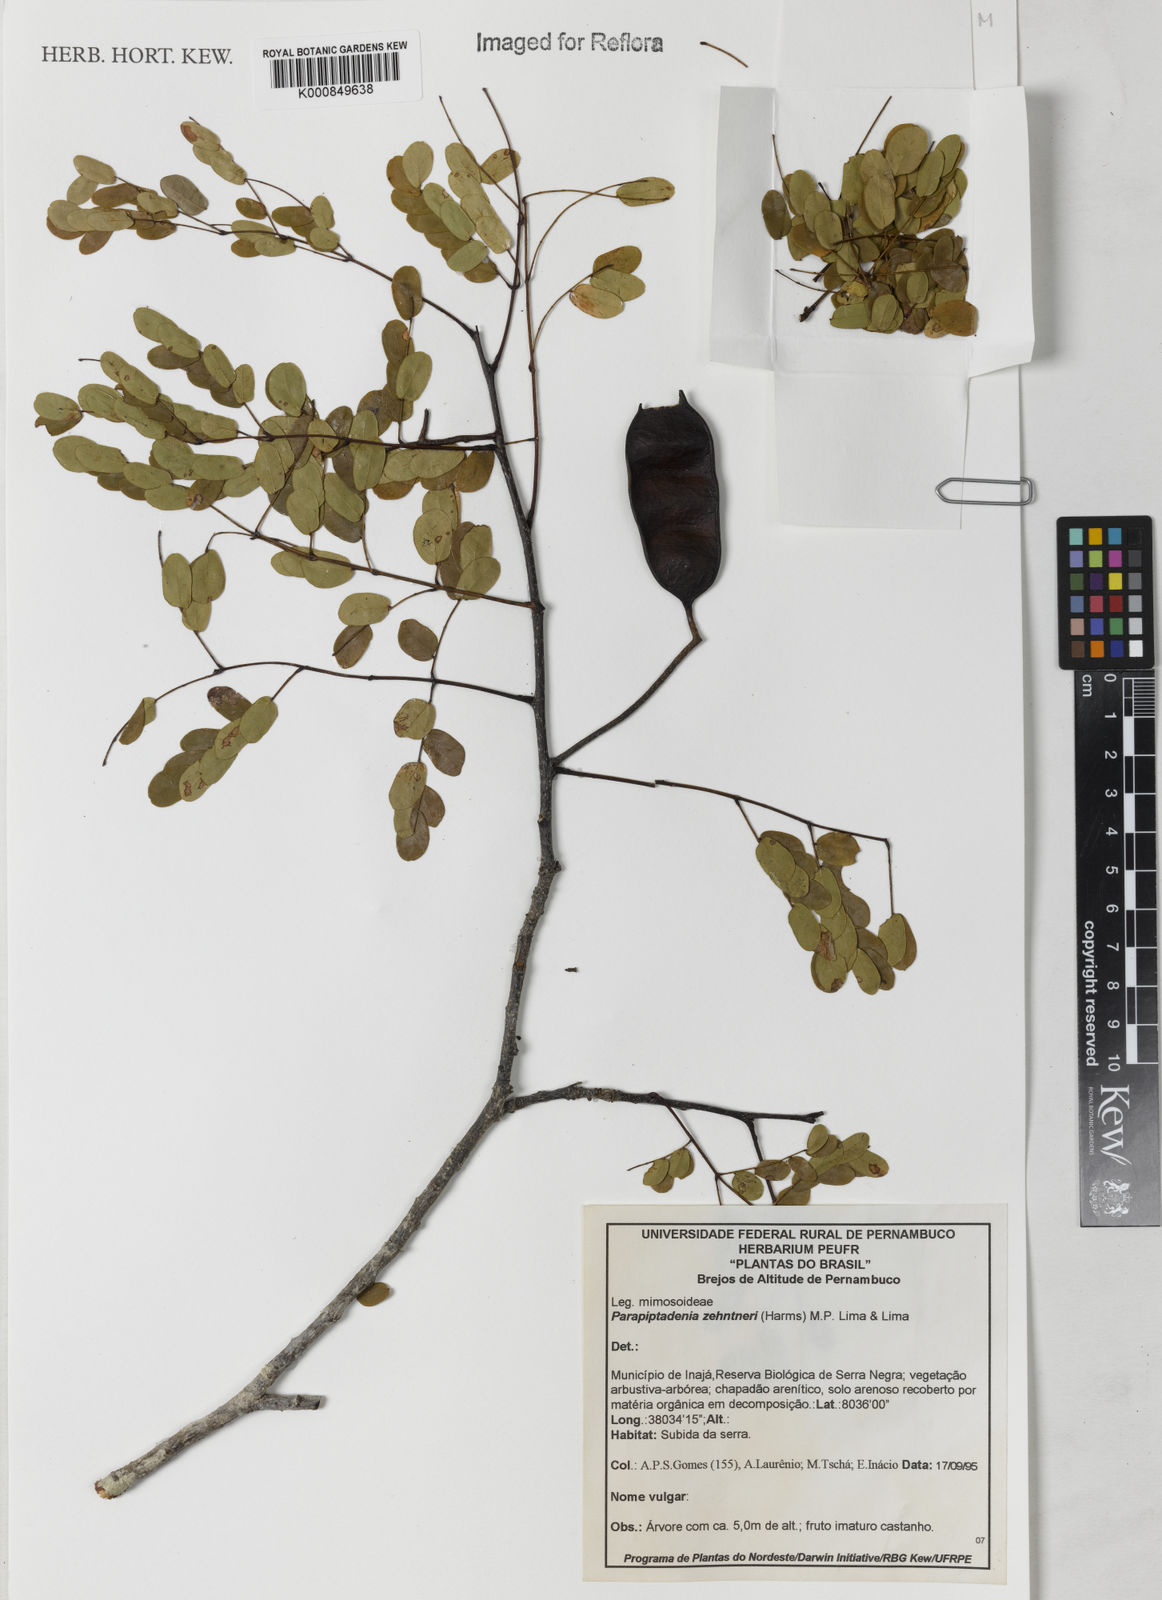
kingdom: Plantae
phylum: Tracheophyta
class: Magnoliopsida
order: Fabales
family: Fabaceae
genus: Parapiptadenia
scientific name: Parapiptadenia zehntneri
